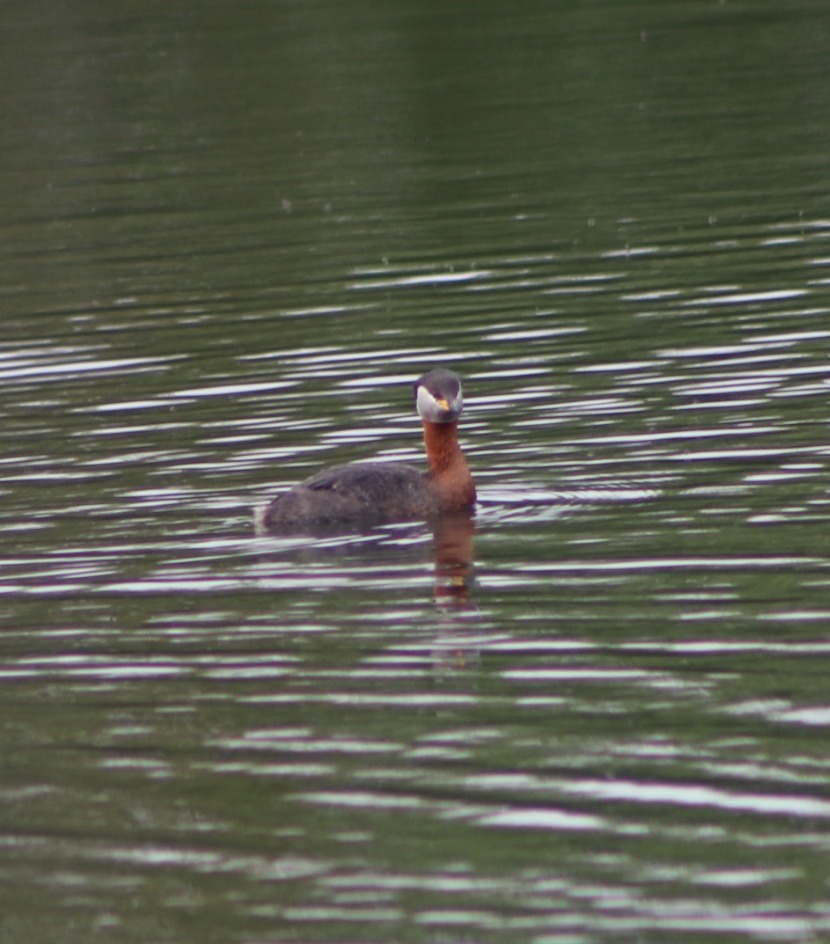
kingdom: Animalia
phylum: Chordata
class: Aves
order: Podicipediformes
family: Podicipedidae
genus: Podiceps
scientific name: Podiceps grisegena
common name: Gråstrubet lappedykker
